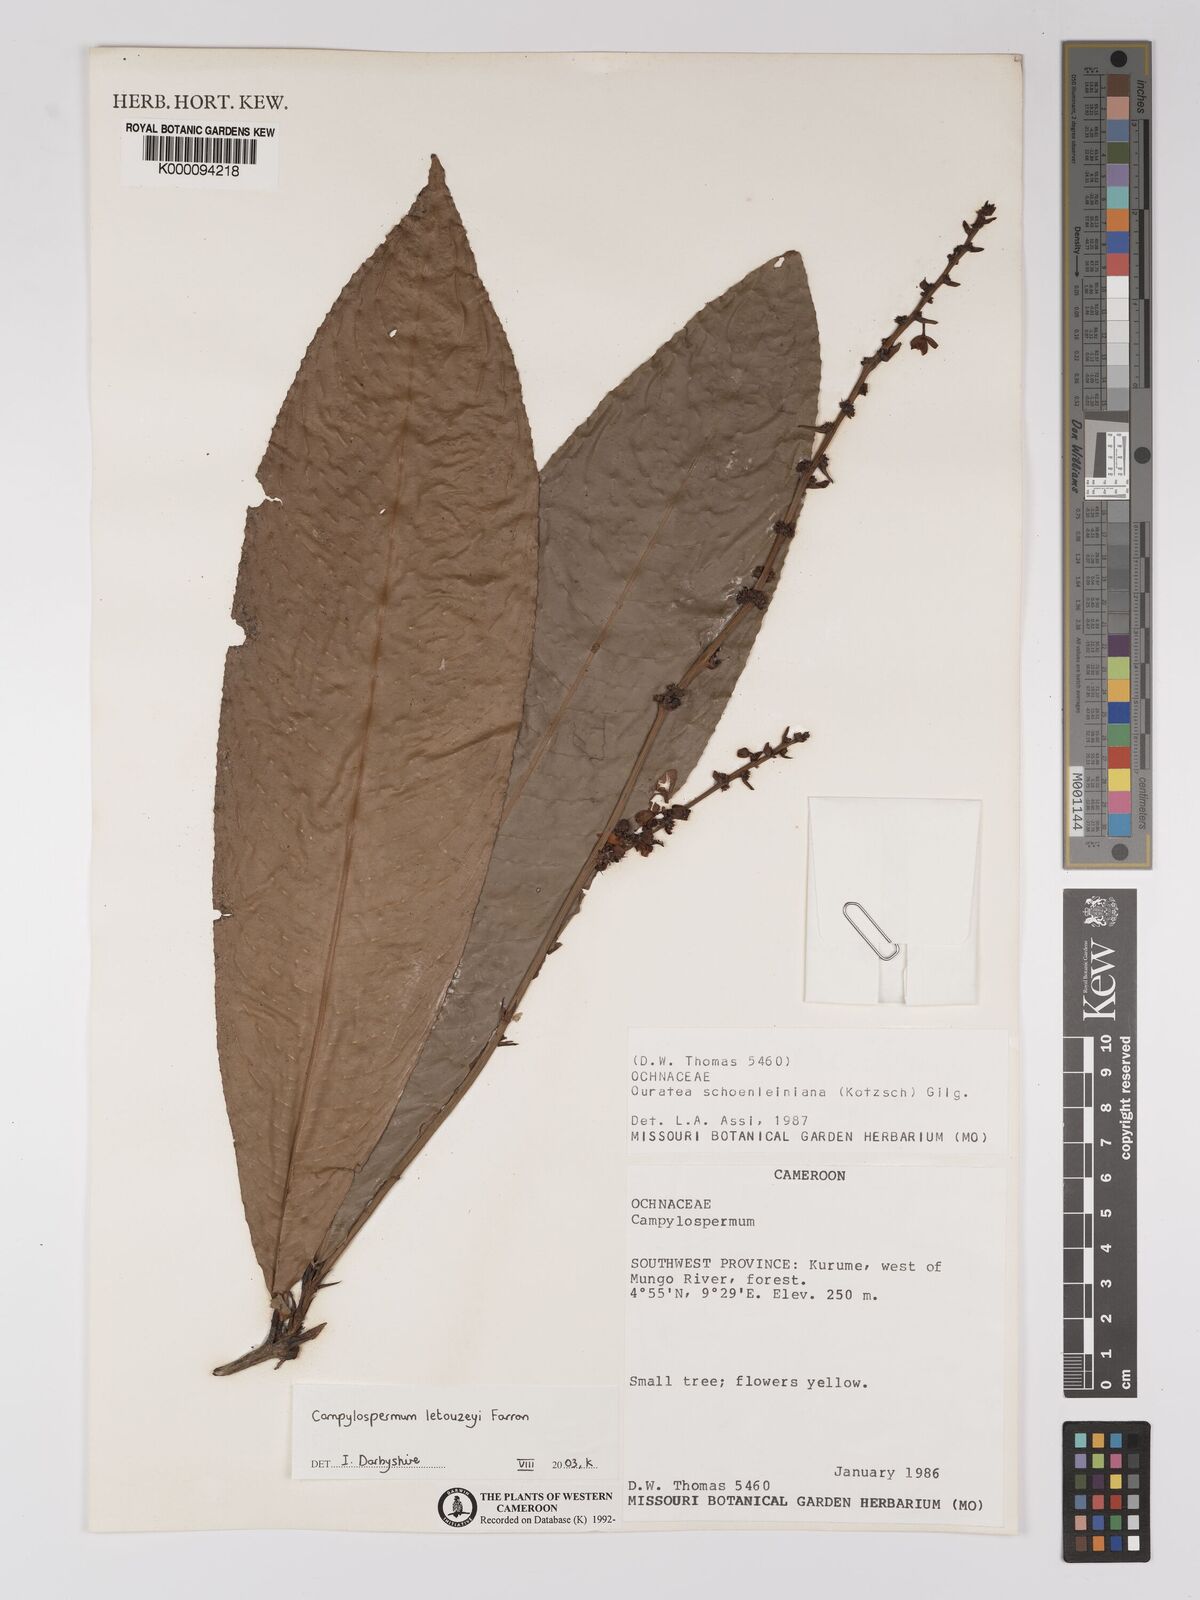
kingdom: Plantae
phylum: Tracheophyta
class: Magnoliopsida
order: Malpighiales
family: Ochnaceae
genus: Campylospermum
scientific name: Campylospermum letouzeyi
